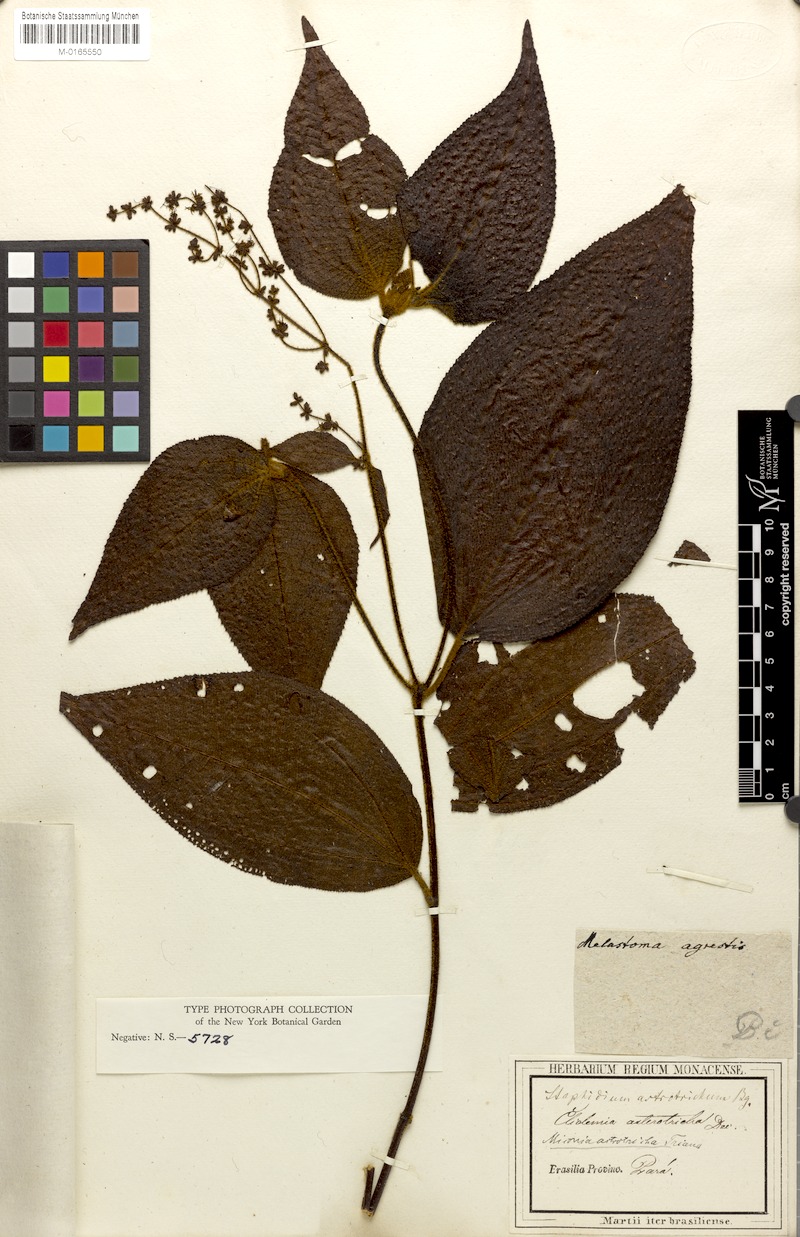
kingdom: Plantae
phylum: Tracheophyta
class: Magnoliopsida
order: Myrtales
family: Melastomataceae
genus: Miconia
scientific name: Miconia astrotricha
